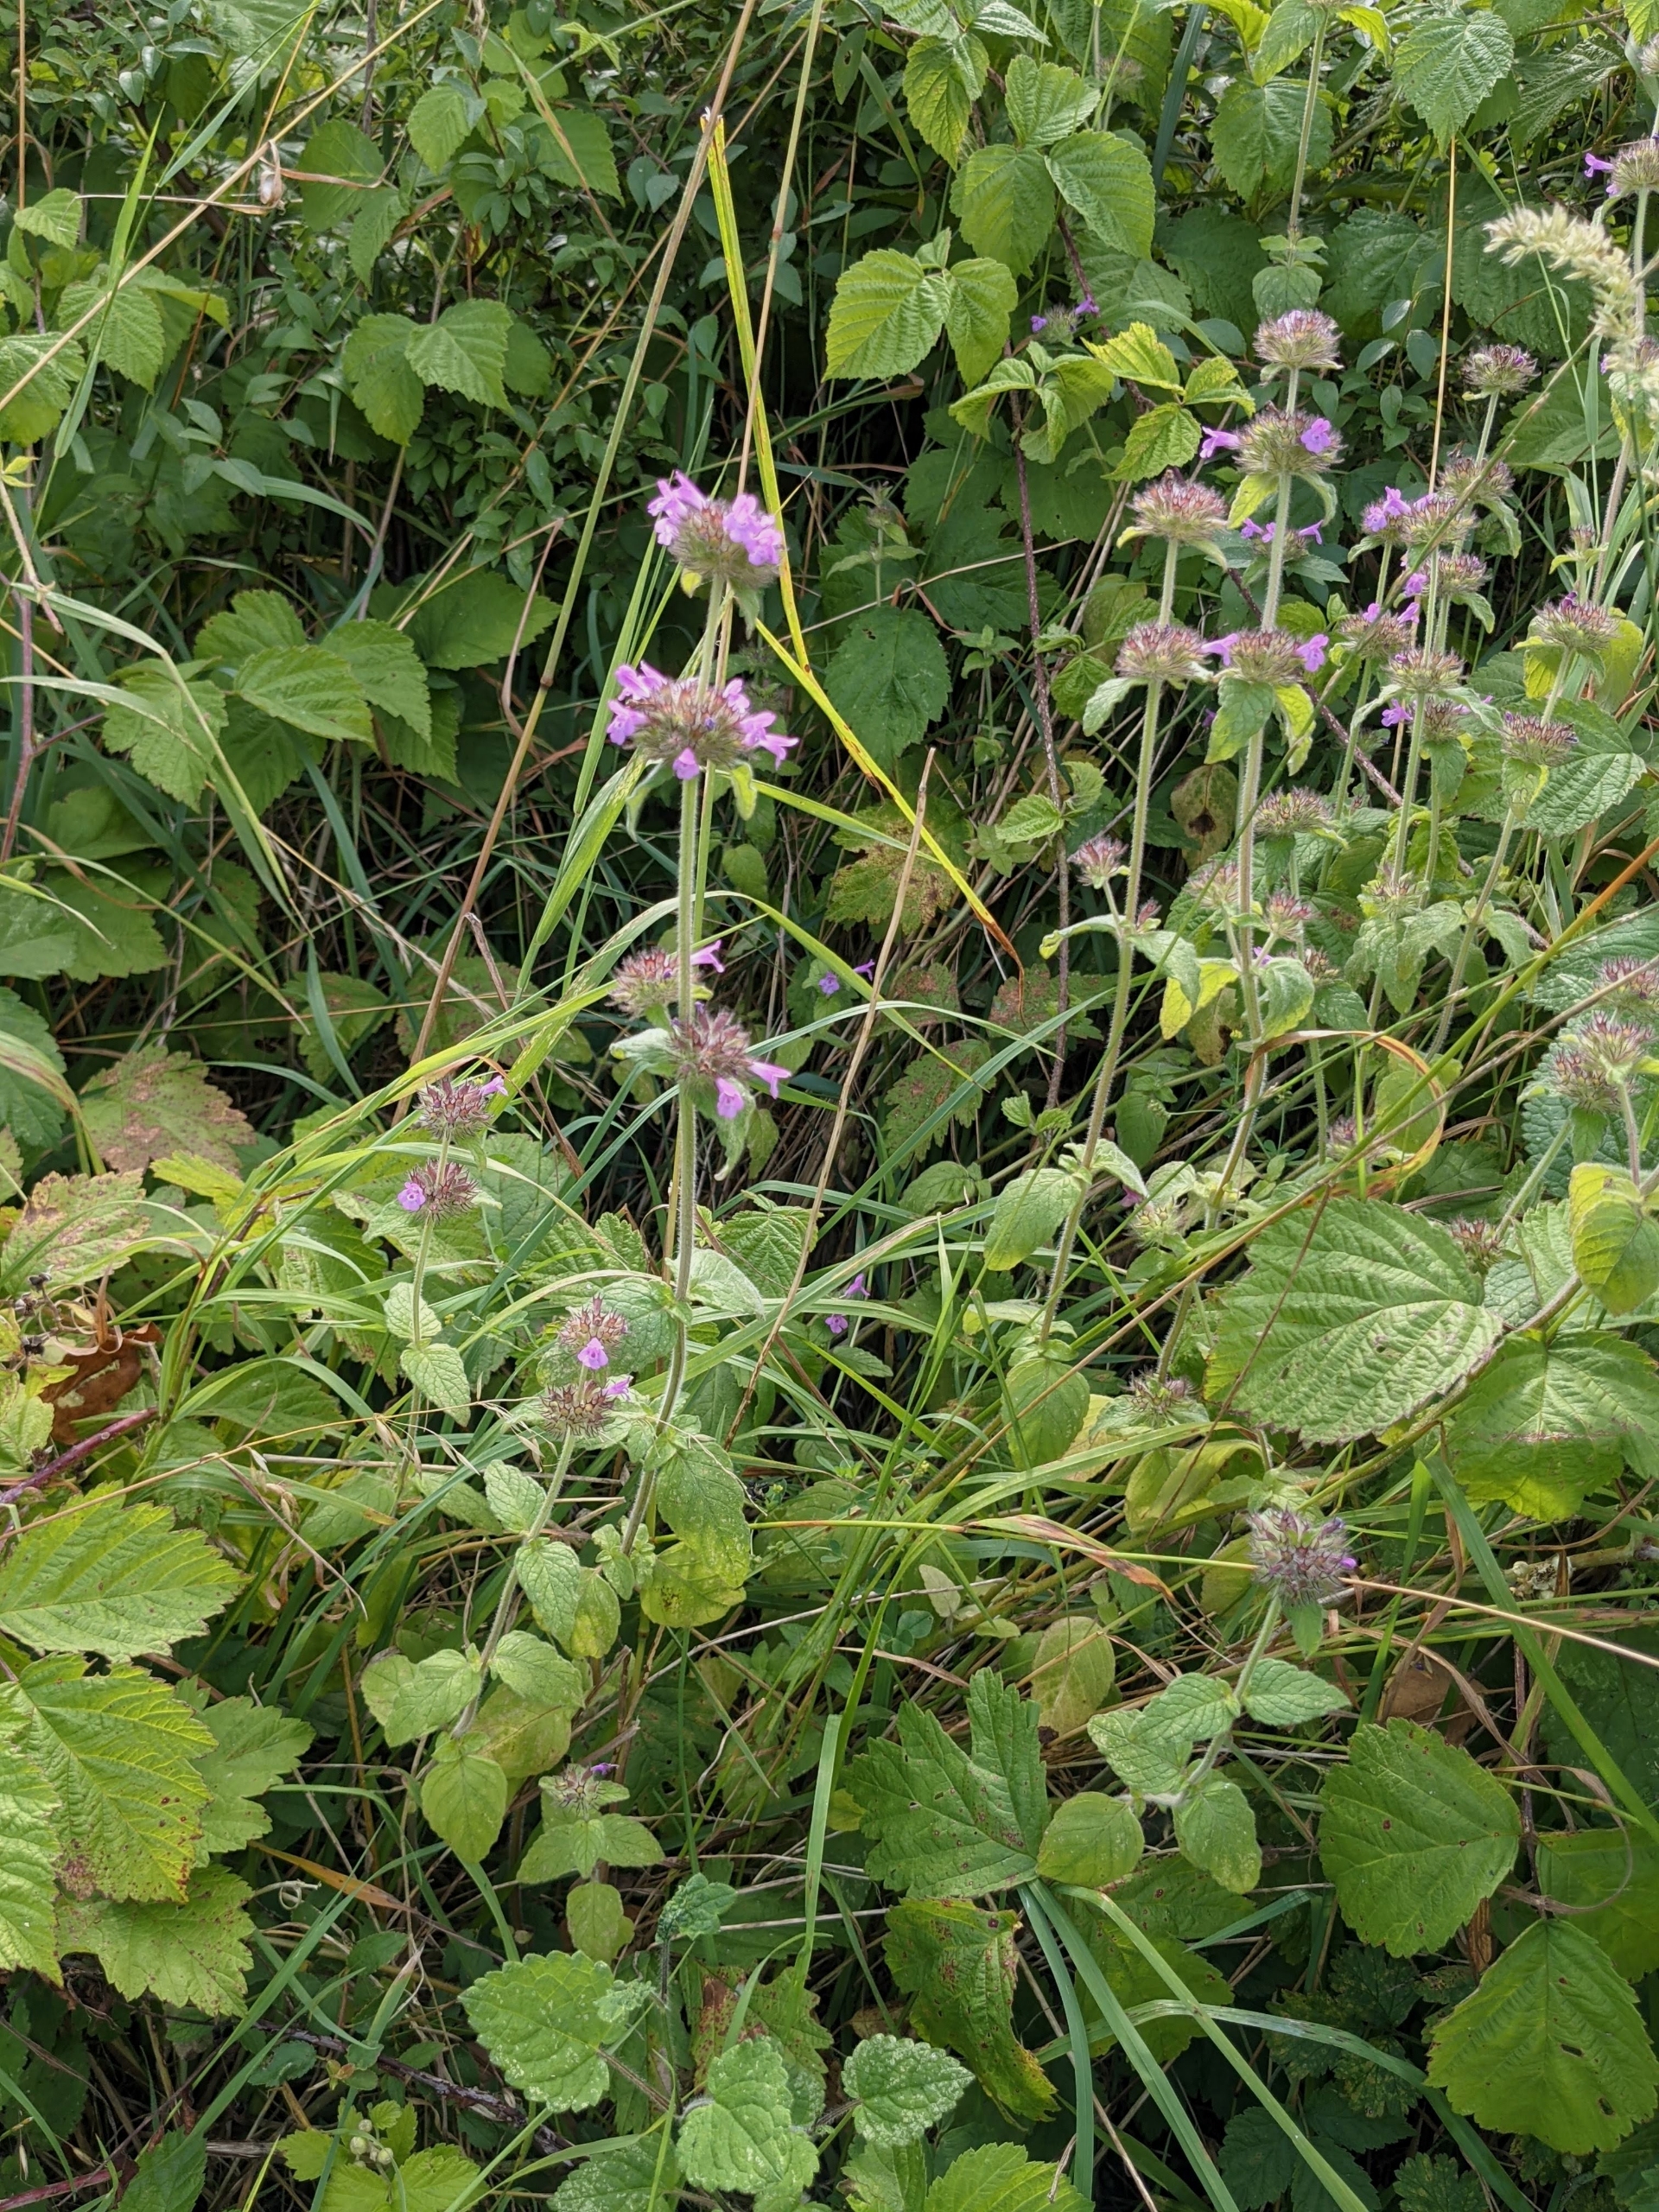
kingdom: Plantae
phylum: Tracheophyta
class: Magnoliopsida
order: Lamiales
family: Lamiaceae
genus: Clinopodium
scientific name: Clinopodium vulgare
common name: Kransbørste
